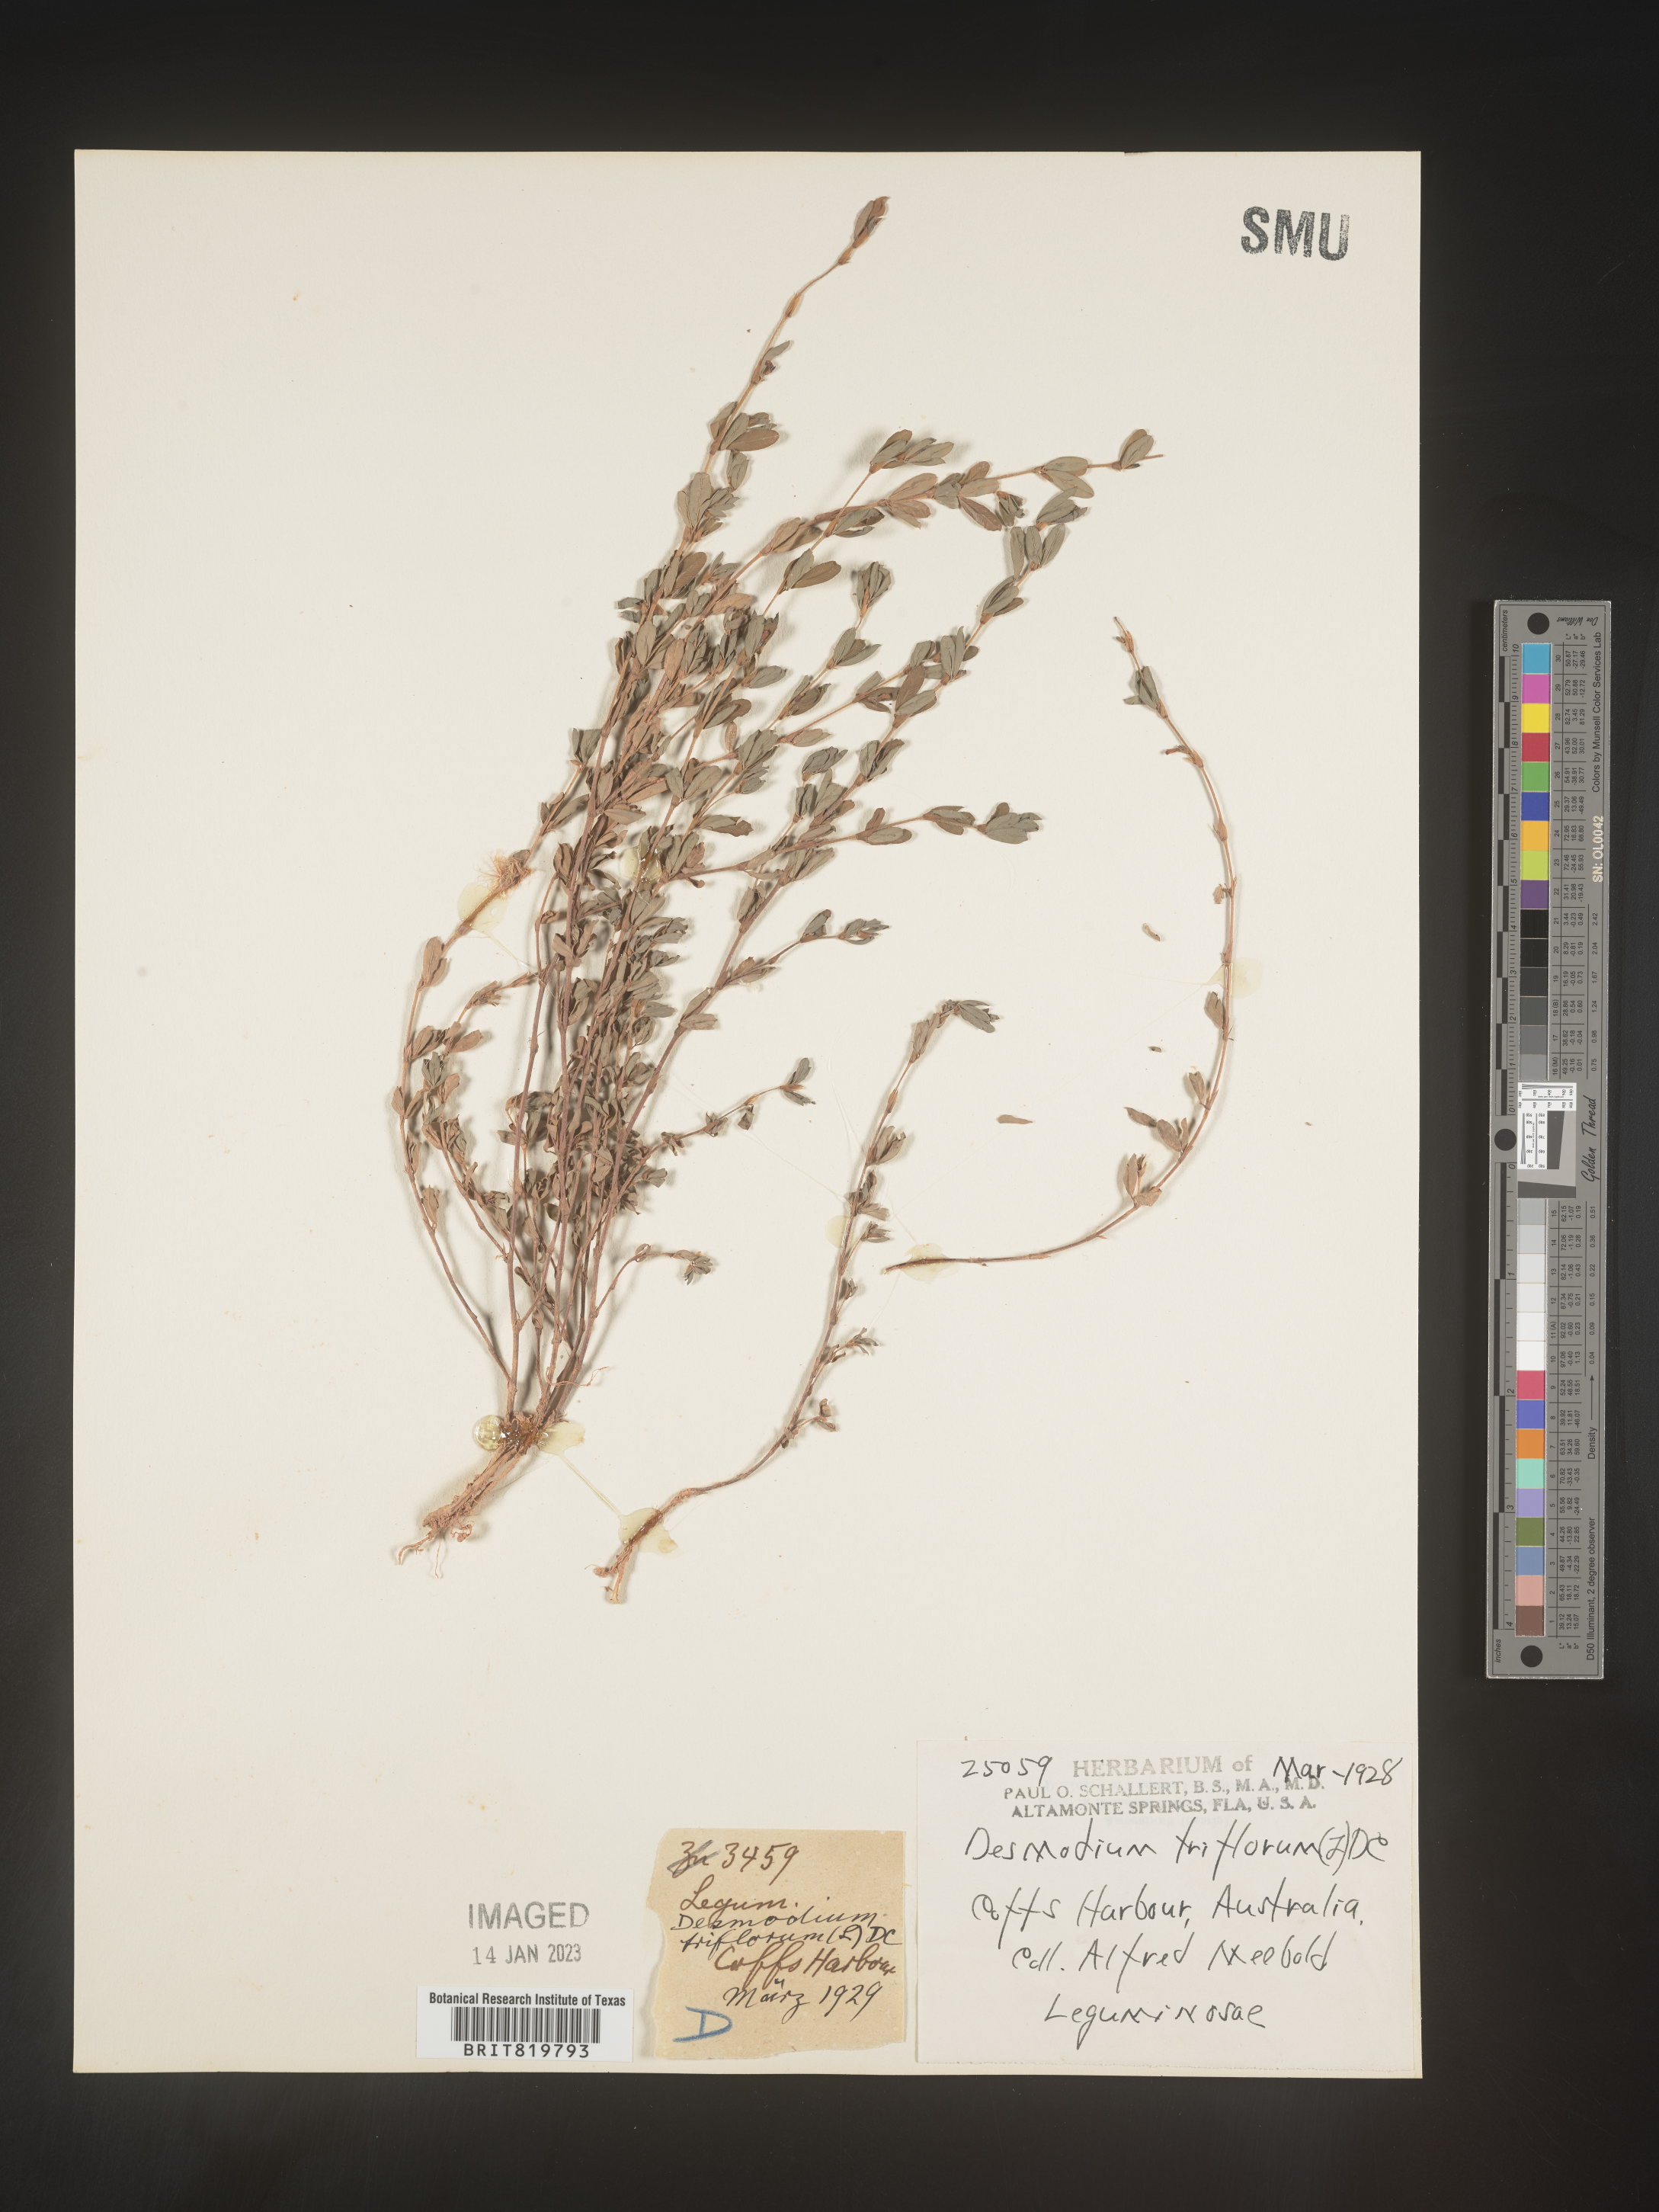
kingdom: Plantae
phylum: Tracheophyta
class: Magnoliopsida
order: Fabales
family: Fabaceae
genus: Desmodium
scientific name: Desmodium
